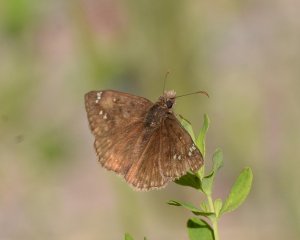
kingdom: Animalia
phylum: Arthropoda
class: Insecta
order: Lepidoptera
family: Hesperiidae
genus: Gesta
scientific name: Gesta
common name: Juvenal's Duskywing
